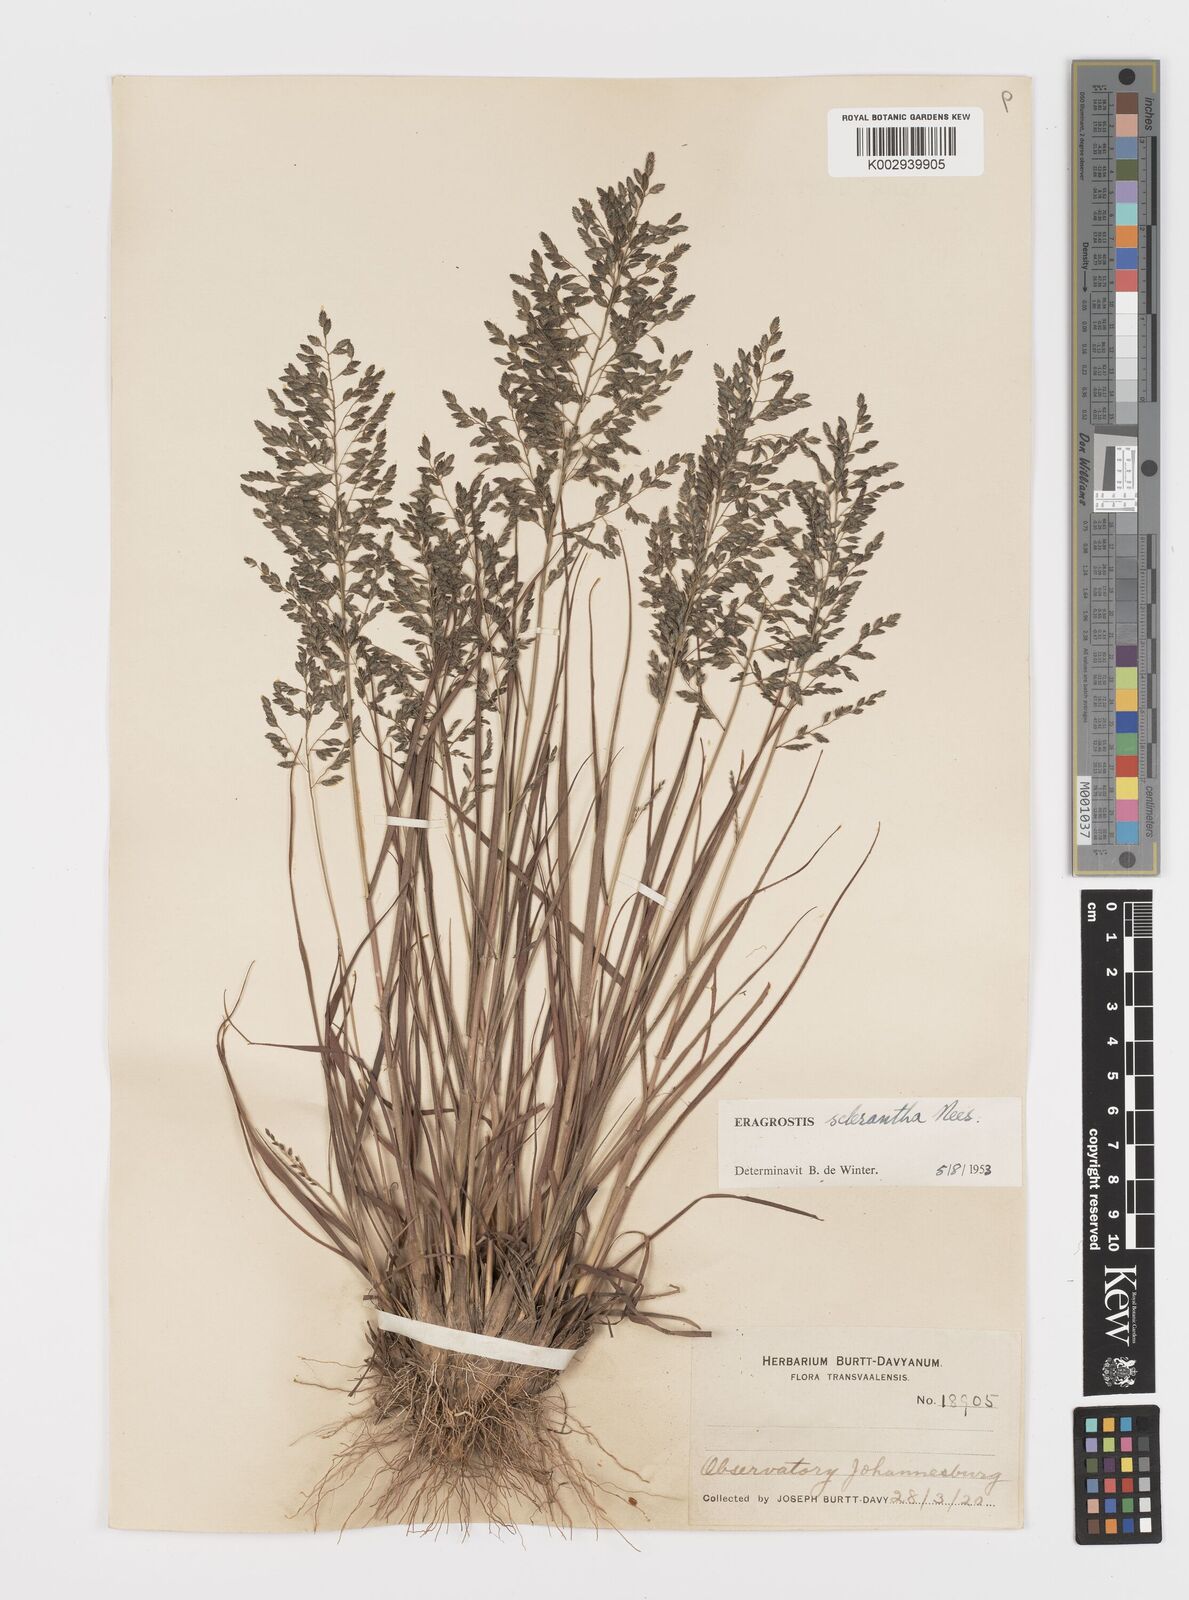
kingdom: Plantae
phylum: Tracheophyta
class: Liliopsida
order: Poales
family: Poaceae
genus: Eragrostis
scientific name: Eragrostis sclerantha
